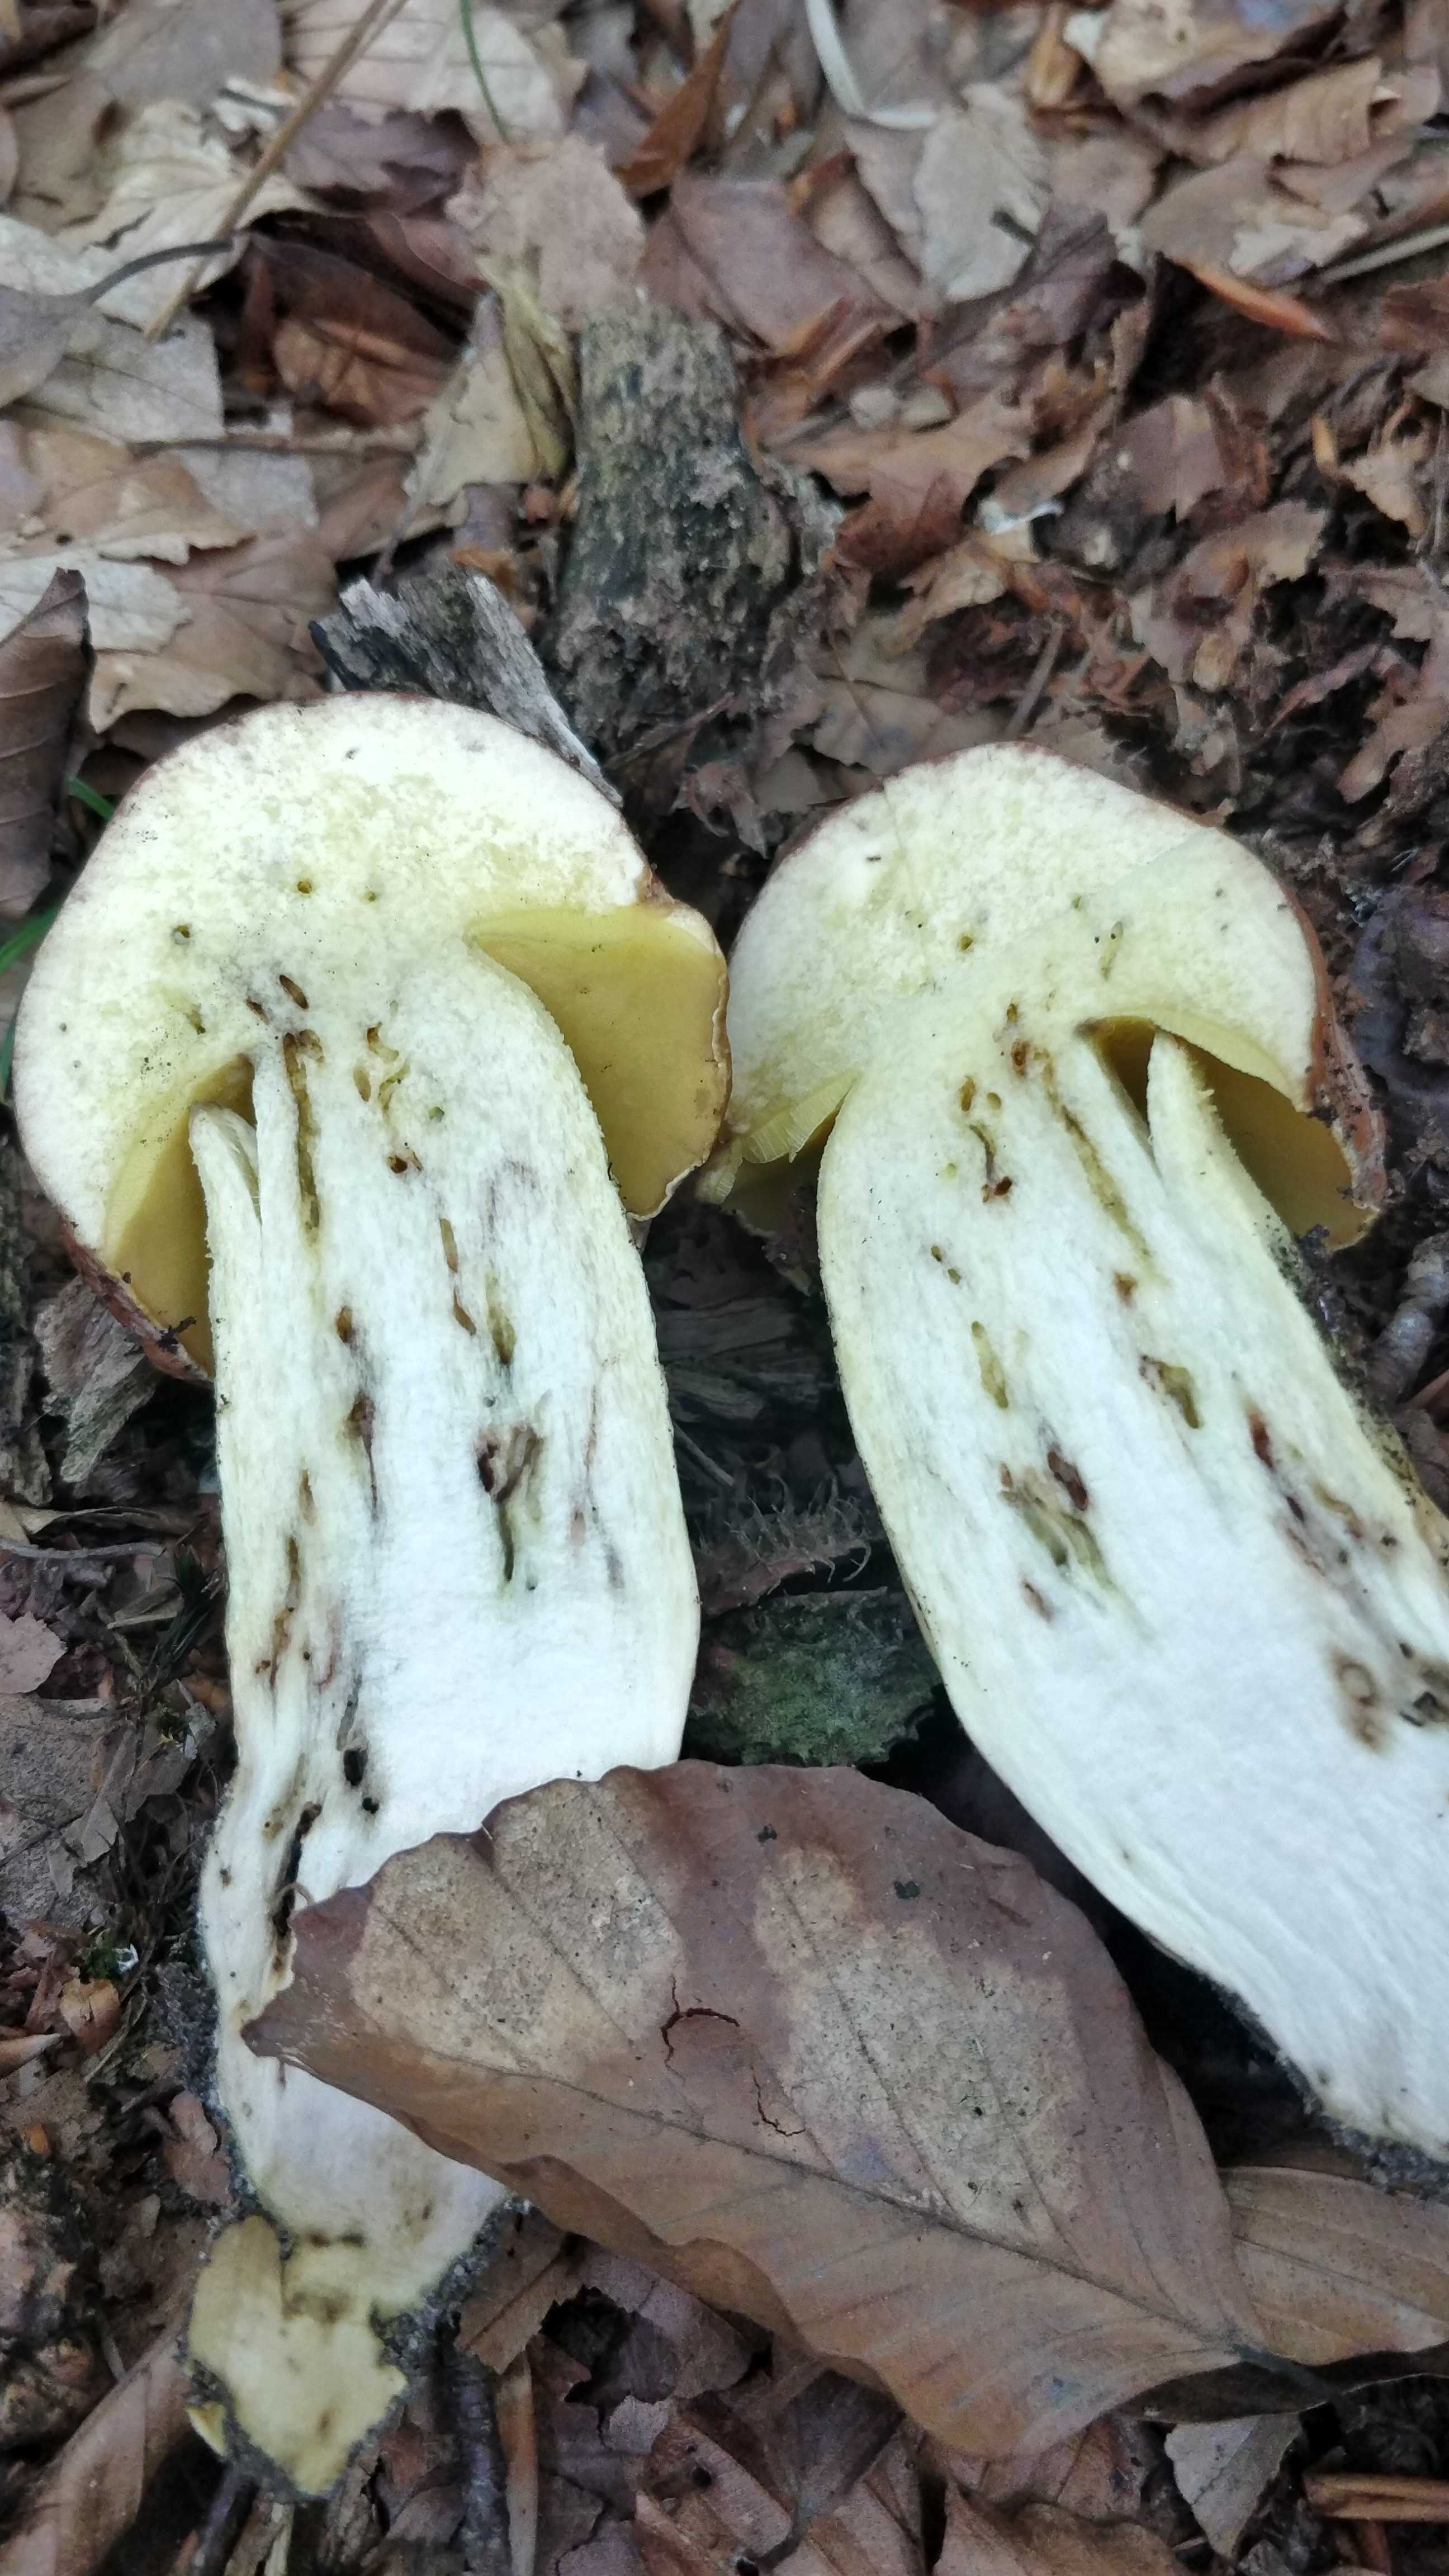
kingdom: Fungi
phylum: Basidiomycota
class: Agaricomycetes
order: Boletales
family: Boletaceae
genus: Butyriboletus
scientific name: Butyriboletus appendiculatus
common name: tenstokket rørhat
